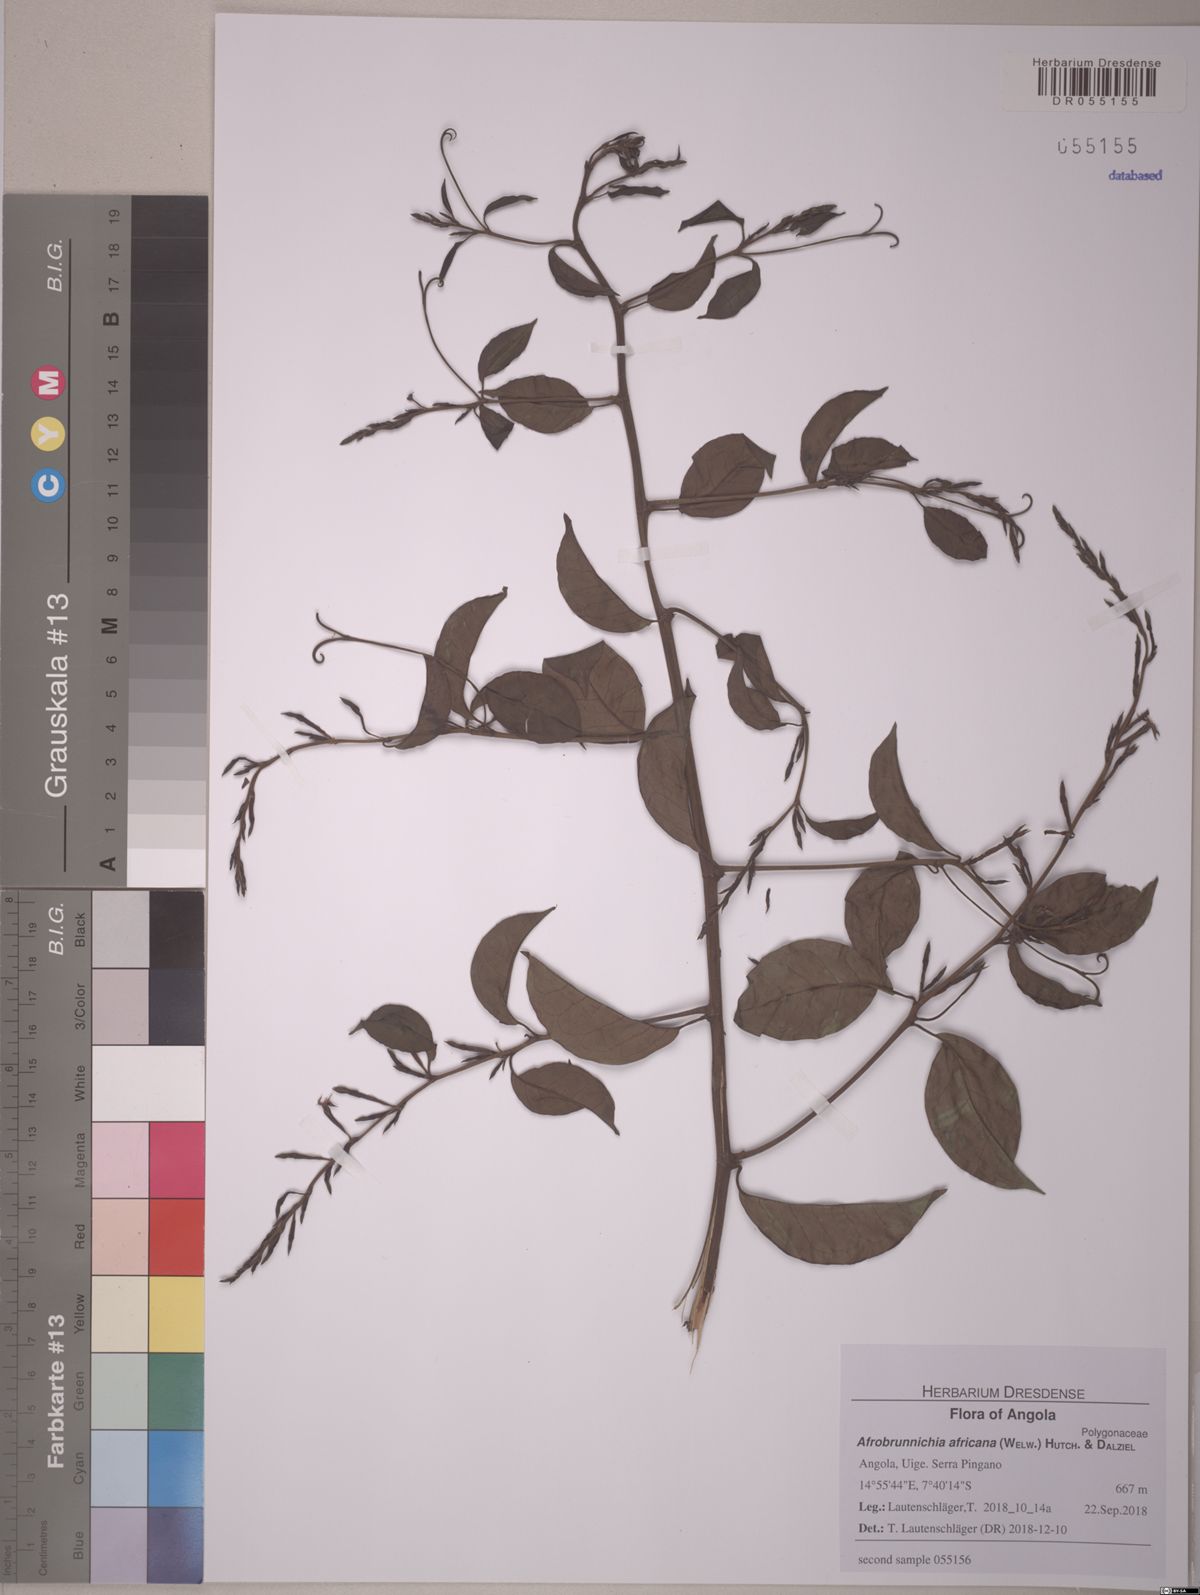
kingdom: Plantae
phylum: Tracheophyta
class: Magnoliopsida
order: Caryophyllales
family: Polygonaceae
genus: Afrobrunnichia
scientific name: Afrobrunnichia africana
